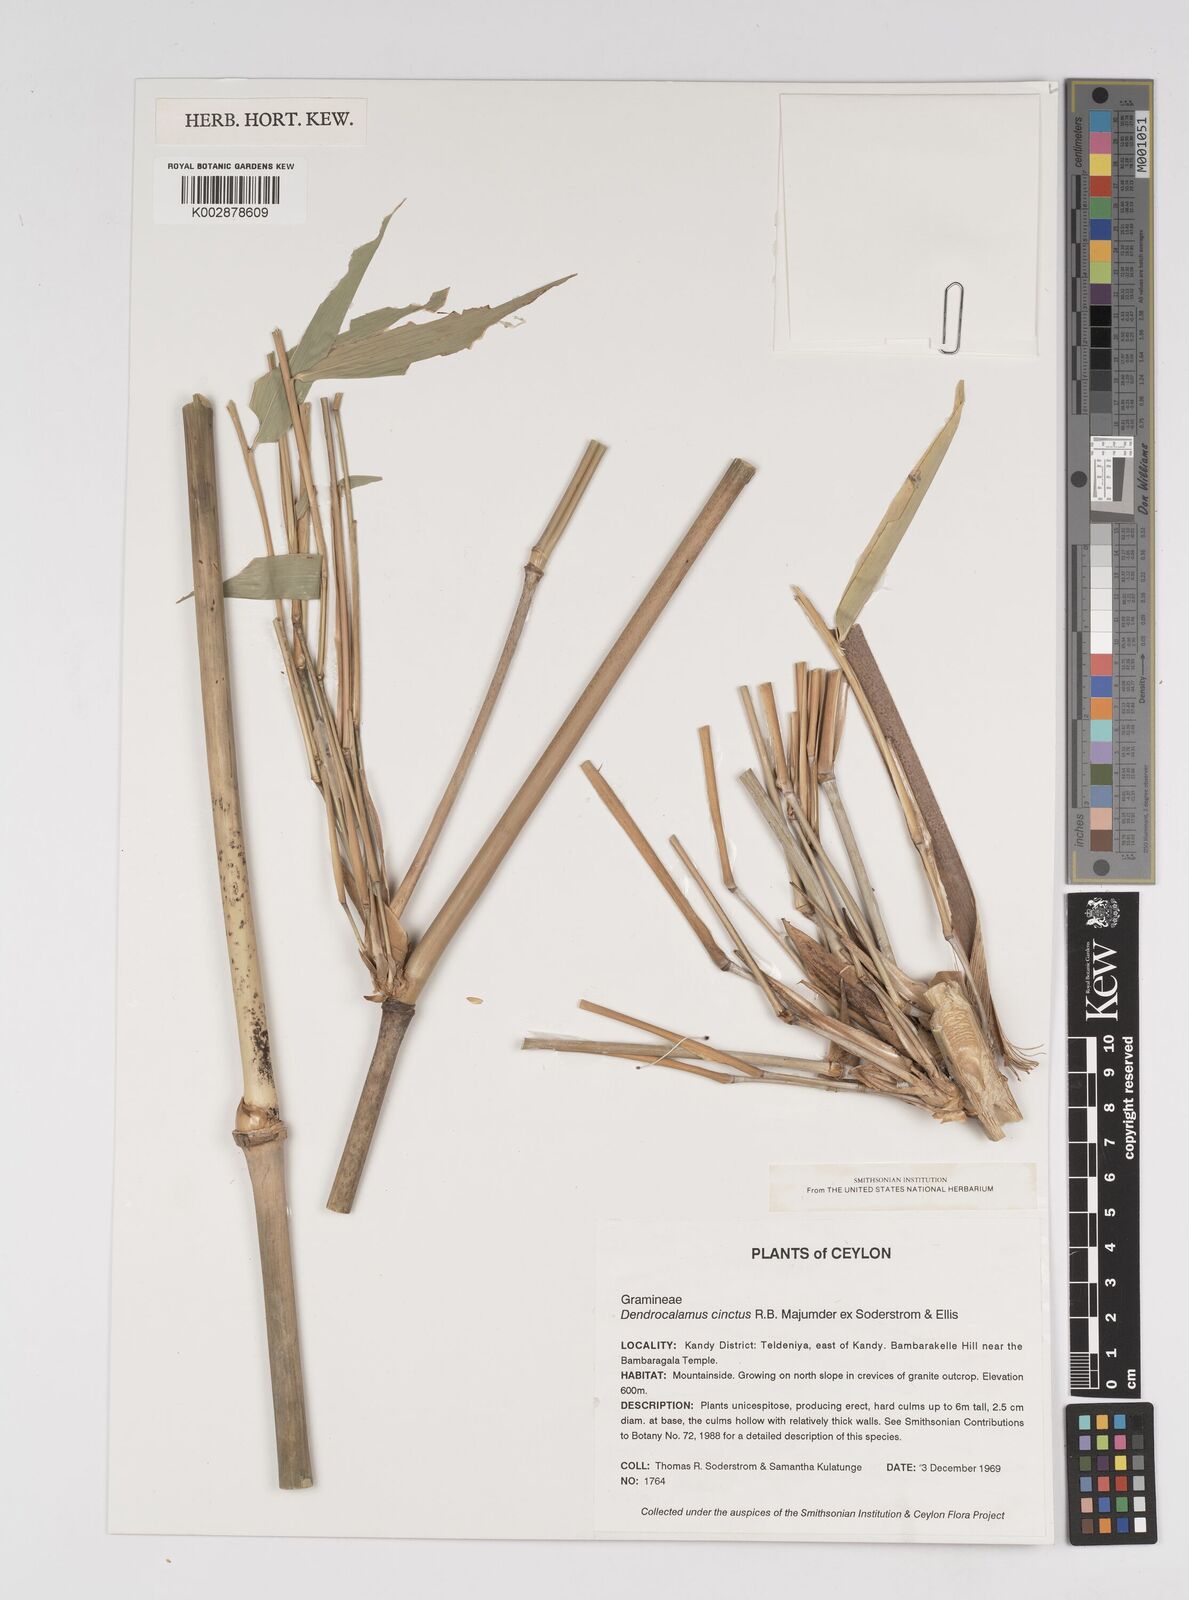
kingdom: Plantae
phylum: Tracheophyta
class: Liliopsida
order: Poales
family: Poaceae
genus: Dendrocalamus
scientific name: Dendrocalamus cinctus
